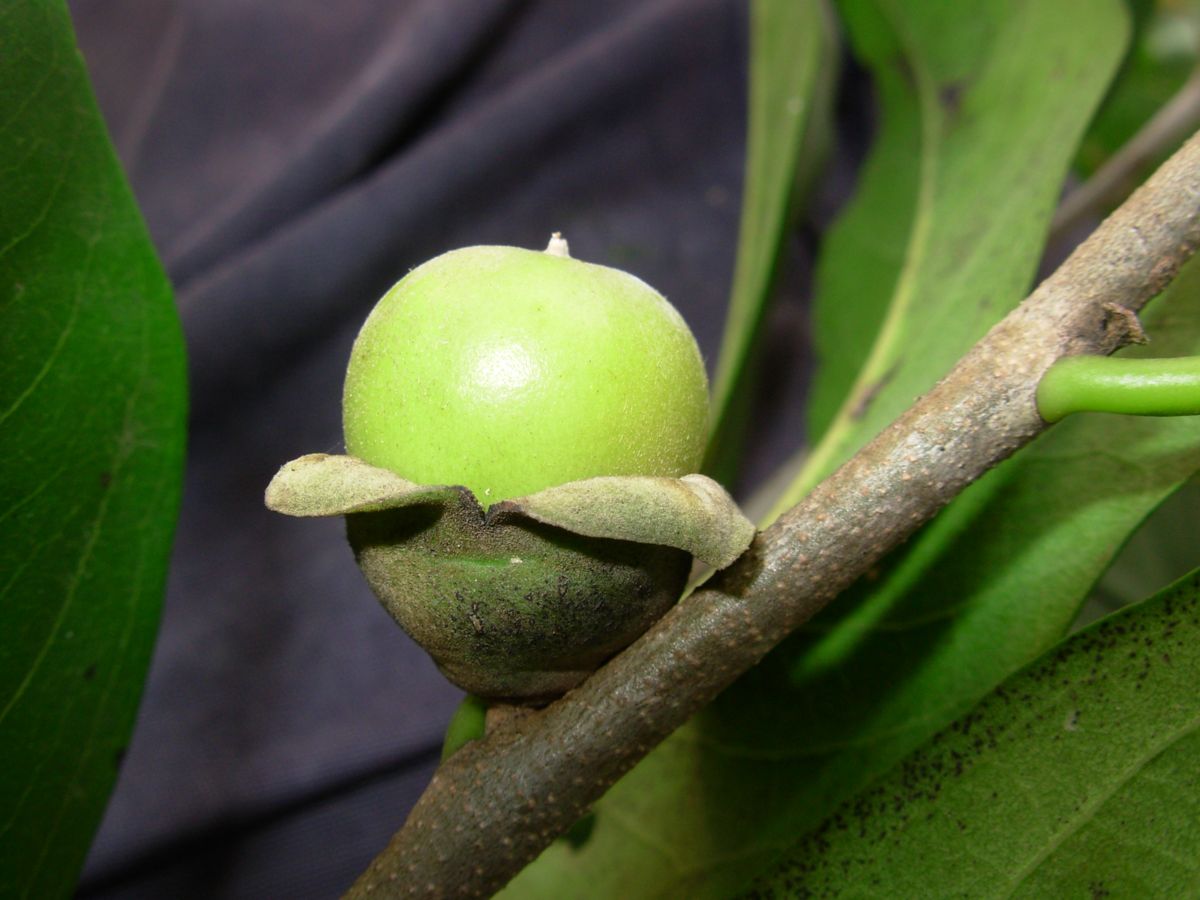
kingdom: Plantae
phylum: Tracheophyta
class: Magnoliopsida
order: Ericales
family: Ebenaceae
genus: Diospyros
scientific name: Diospyros salicifolia
